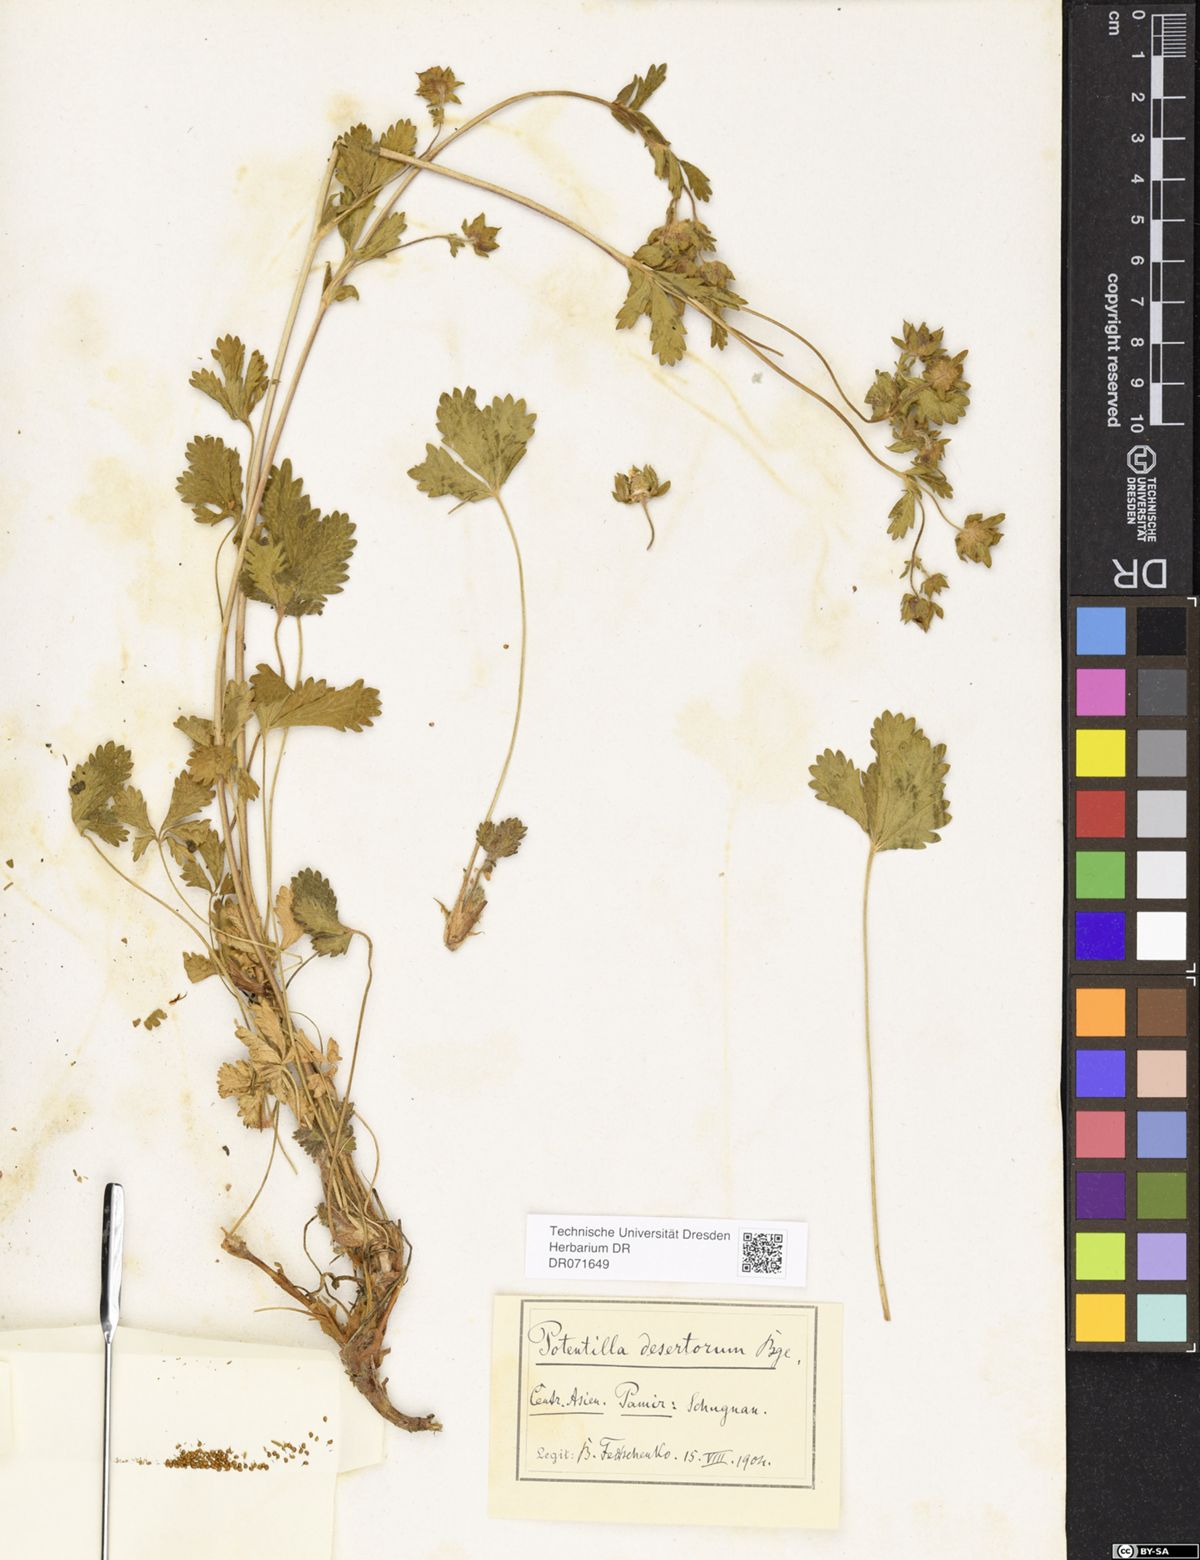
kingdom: Plantae
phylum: Tracheophyta
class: Magnoliopsida
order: Rosales
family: Rosaceae
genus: Potentilla
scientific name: Potentilla desertorum
